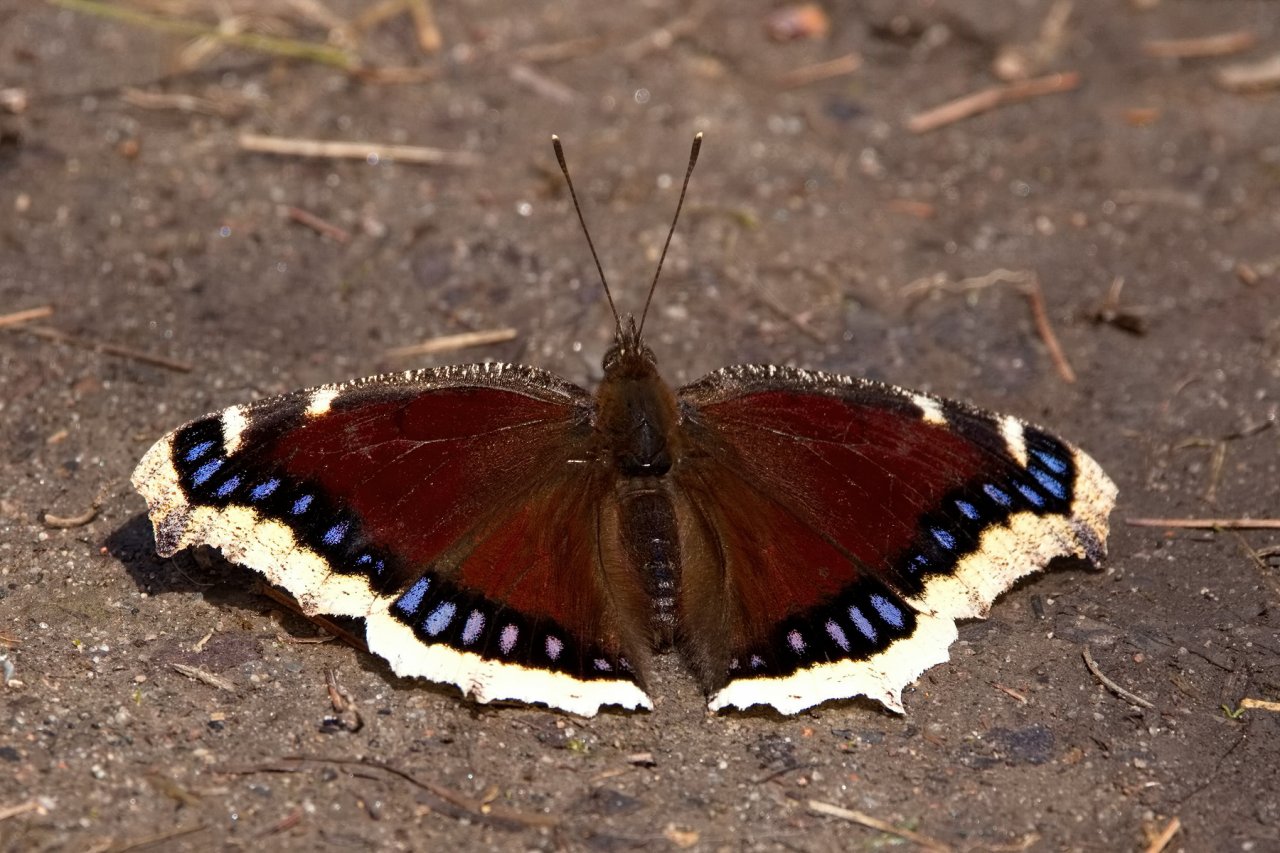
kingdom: Animalia
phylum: Arthropoda
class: Insecta
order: Lepidoptera
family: Nymphalidae
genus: Nymphalis
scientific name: Nymphalis antiopa
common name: Mourning Cloak
